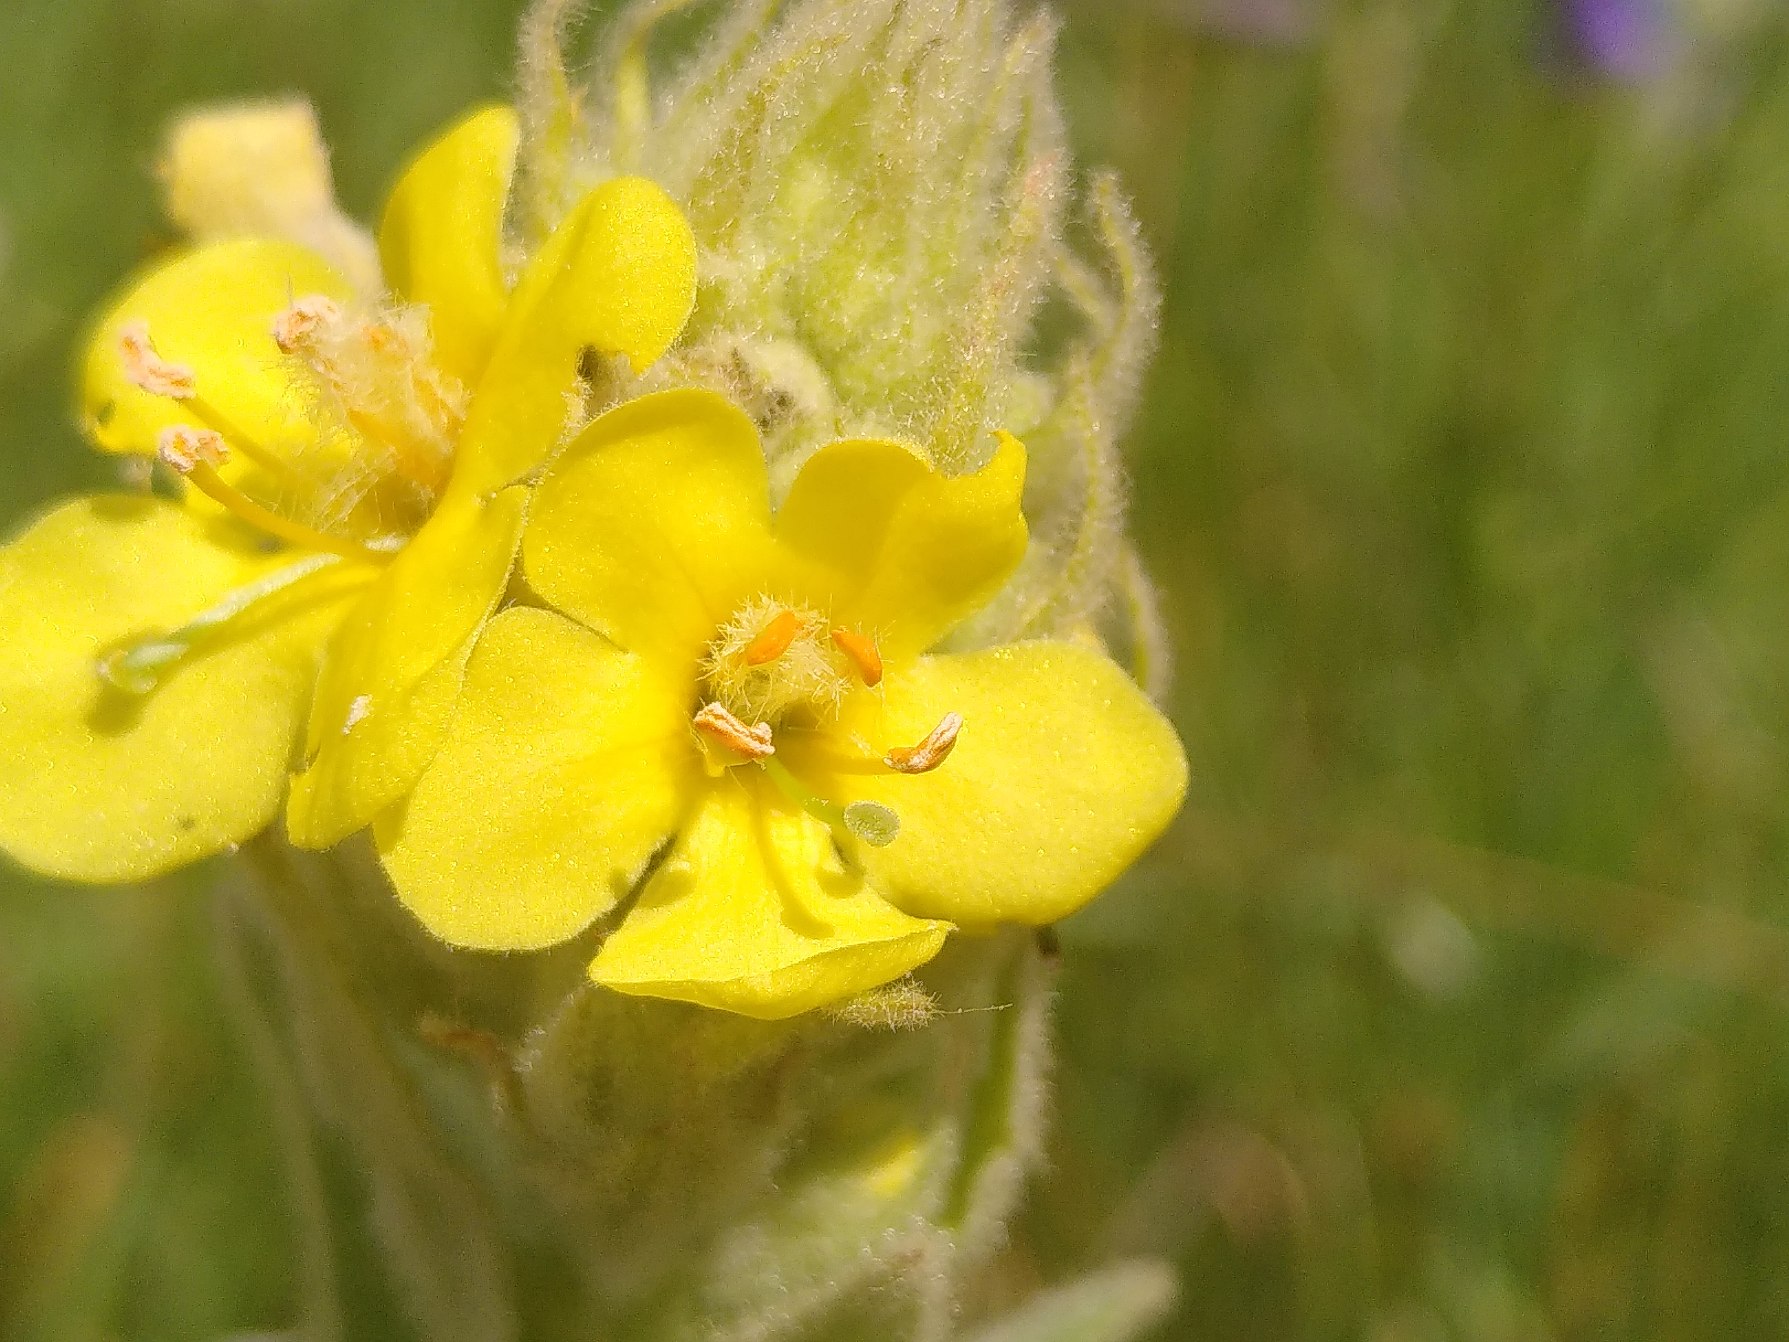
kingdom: Plantae
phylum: Tracheophyta
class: Magnoliopsida
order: Lamiales
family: Scrophulariaceae
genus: Verbascum
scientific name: Verbascum densiflorum
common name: Uldbladet kongelys
